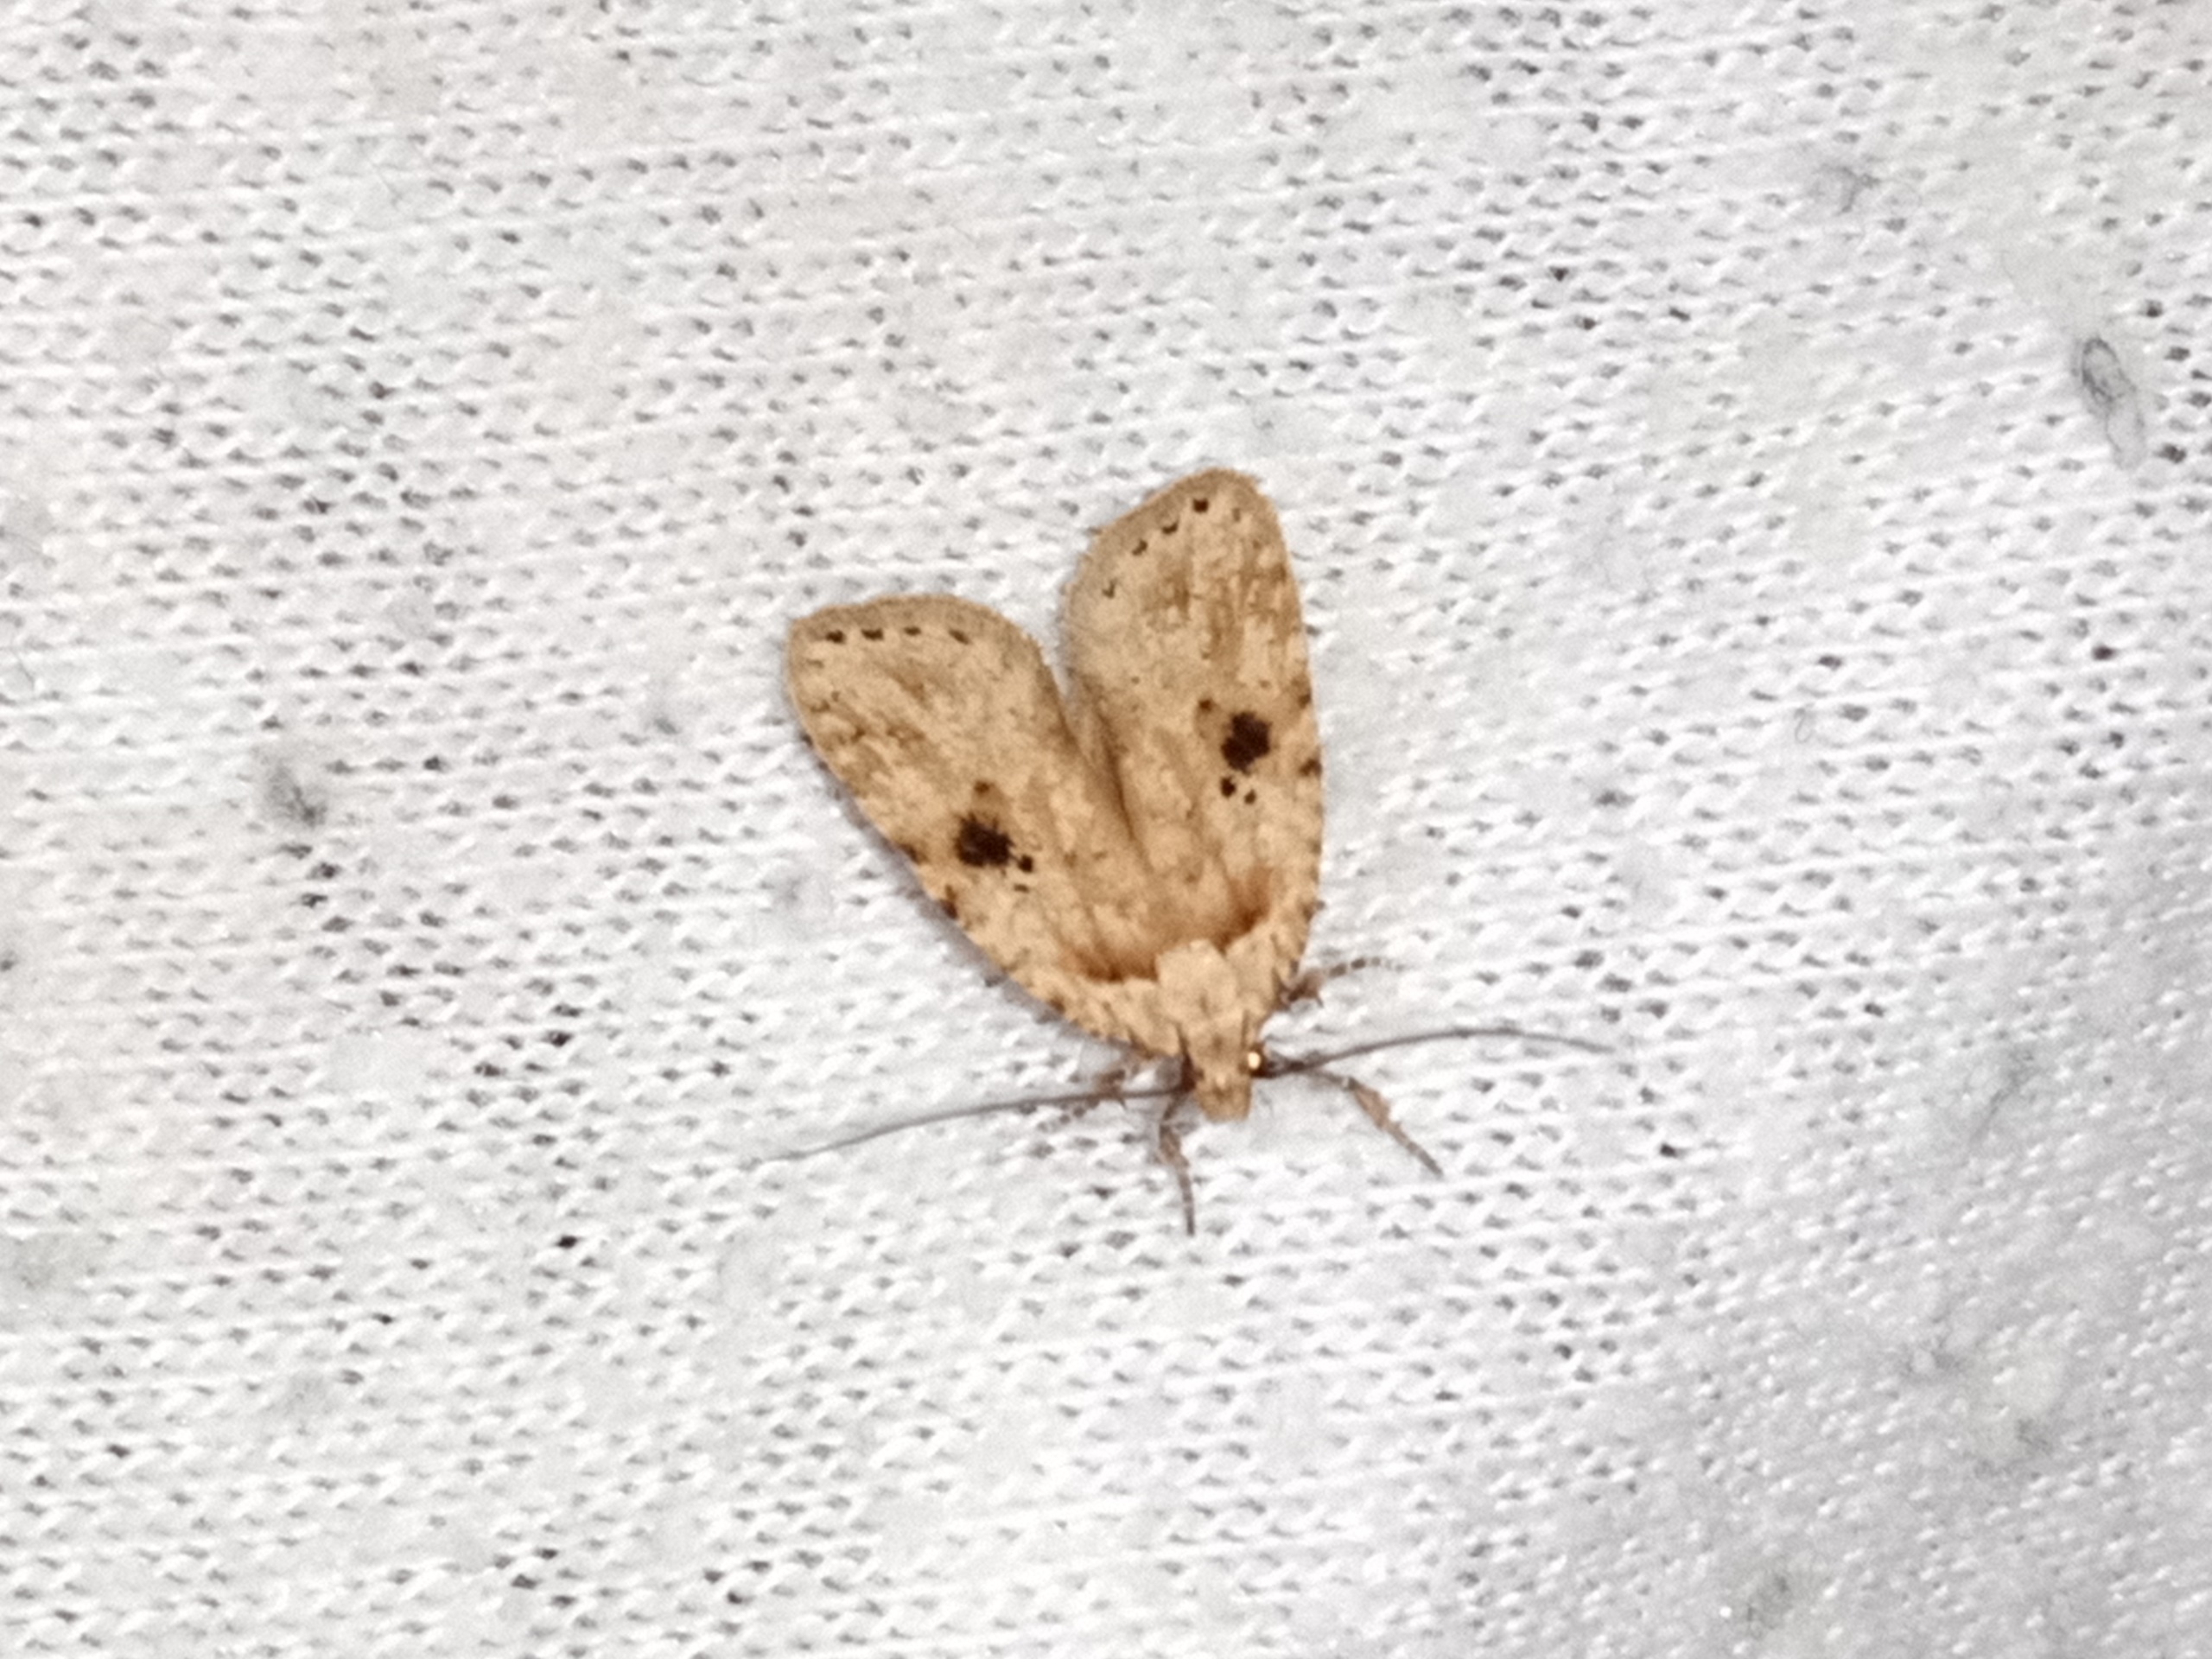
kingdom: Animalia
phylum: Arthropoda
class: Insecta
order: Lepidoptera
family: Depressariidae
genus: Agonopterix
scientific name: Agonopterix arenella
